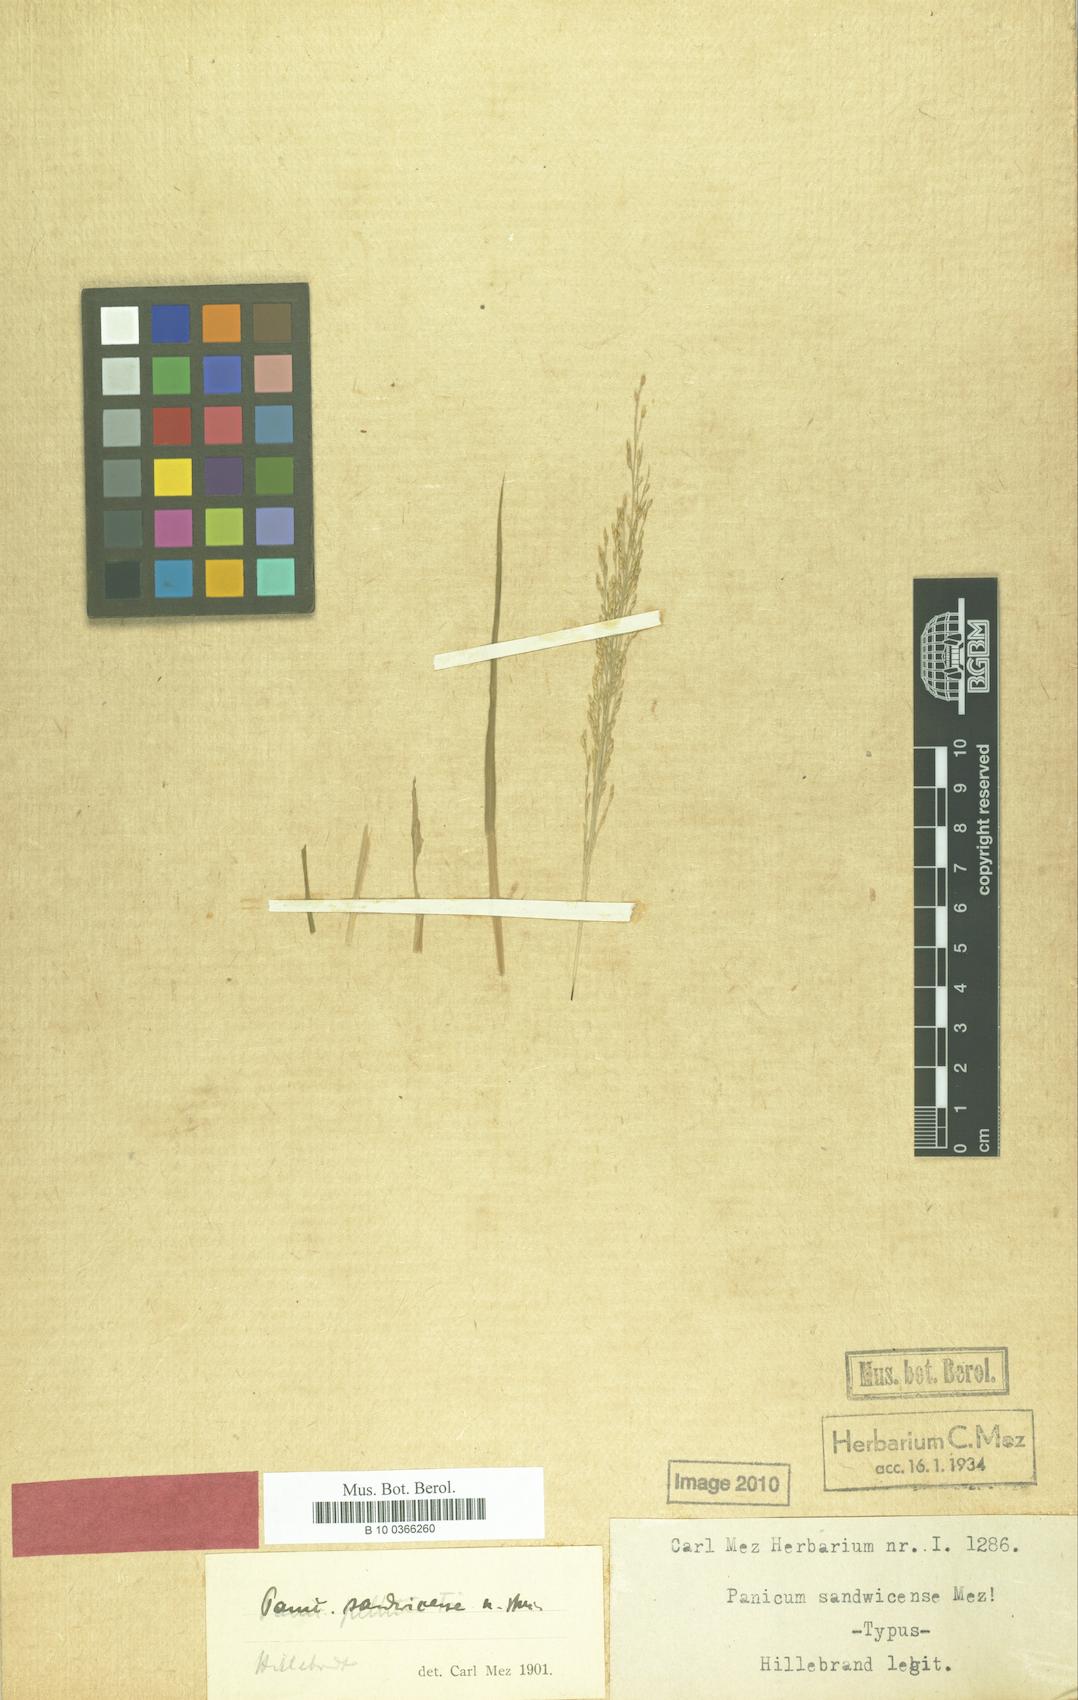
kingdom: Plantae
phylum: Tracheophyta
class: Liliopsida
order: Poales
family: Poaceae
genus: Oedochloa
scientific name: Oedochloa minarum
